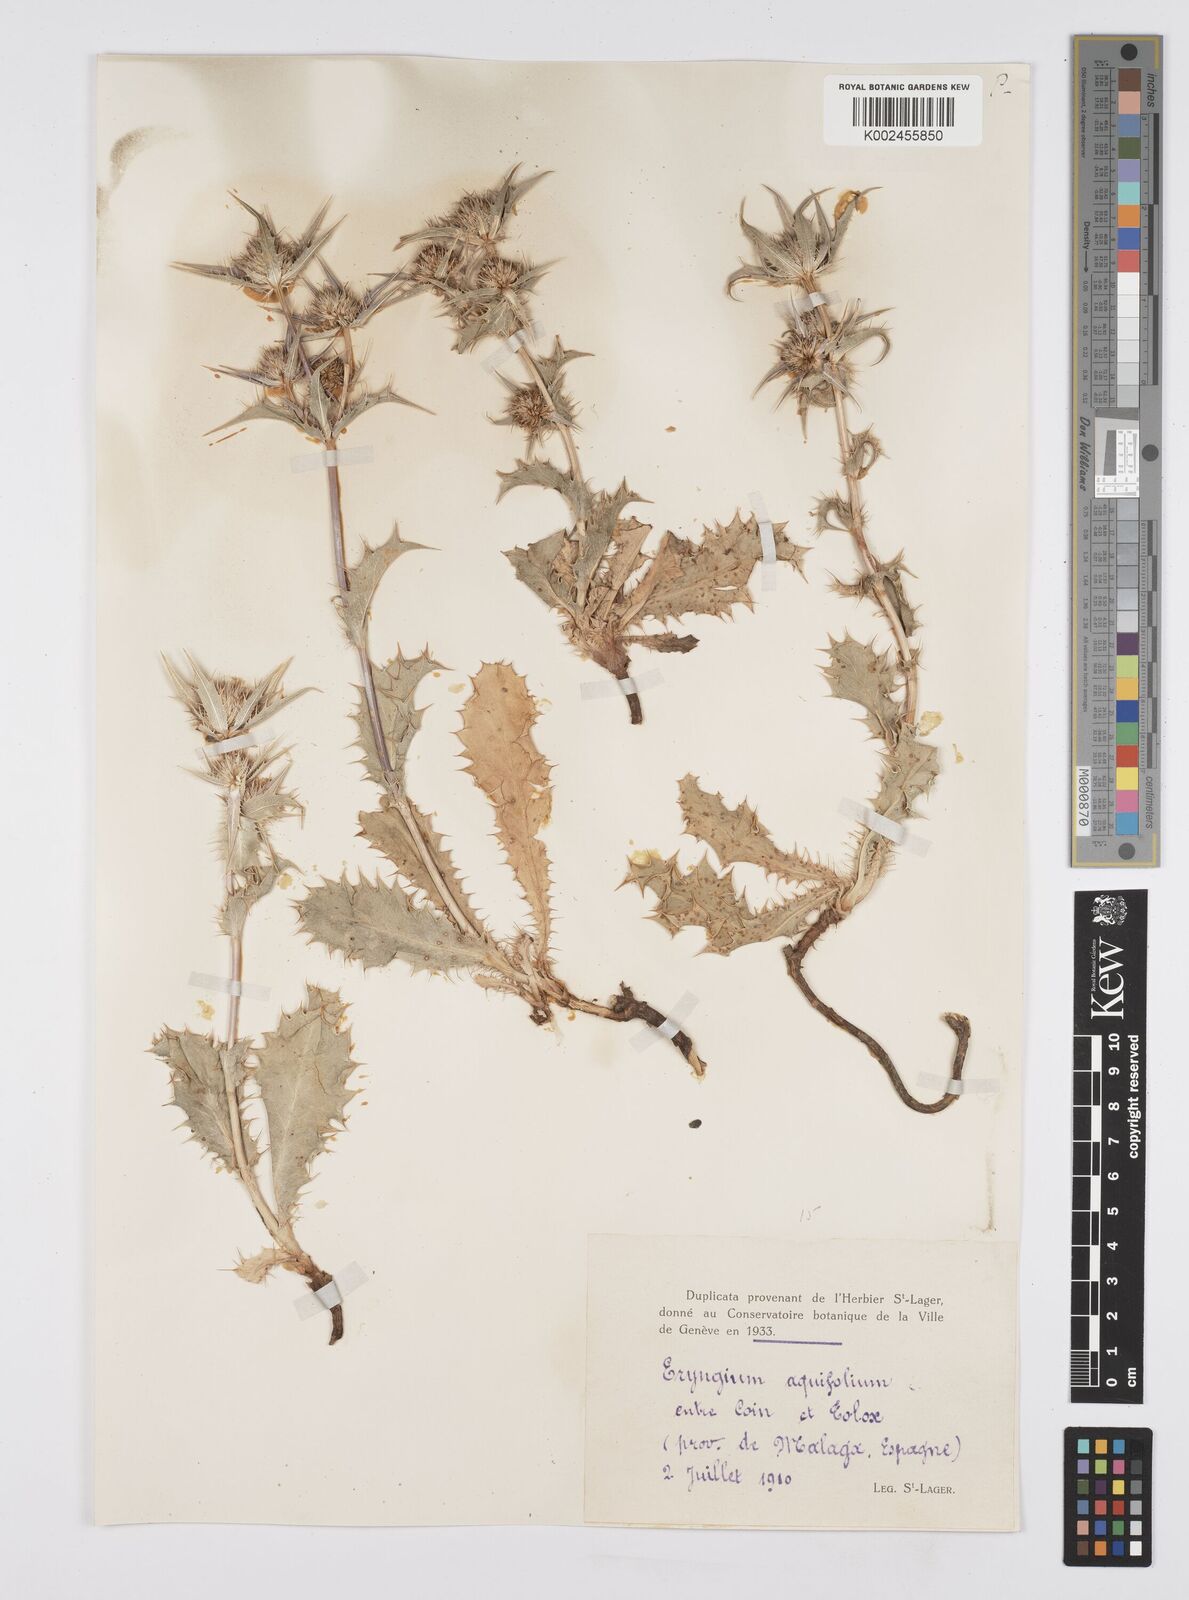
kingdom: Plantae
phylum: Tracheophyta
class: Magnoliopsida
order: Apiales
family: Apiaceae
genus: Eryngium
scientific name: Eryngium aquifolium
